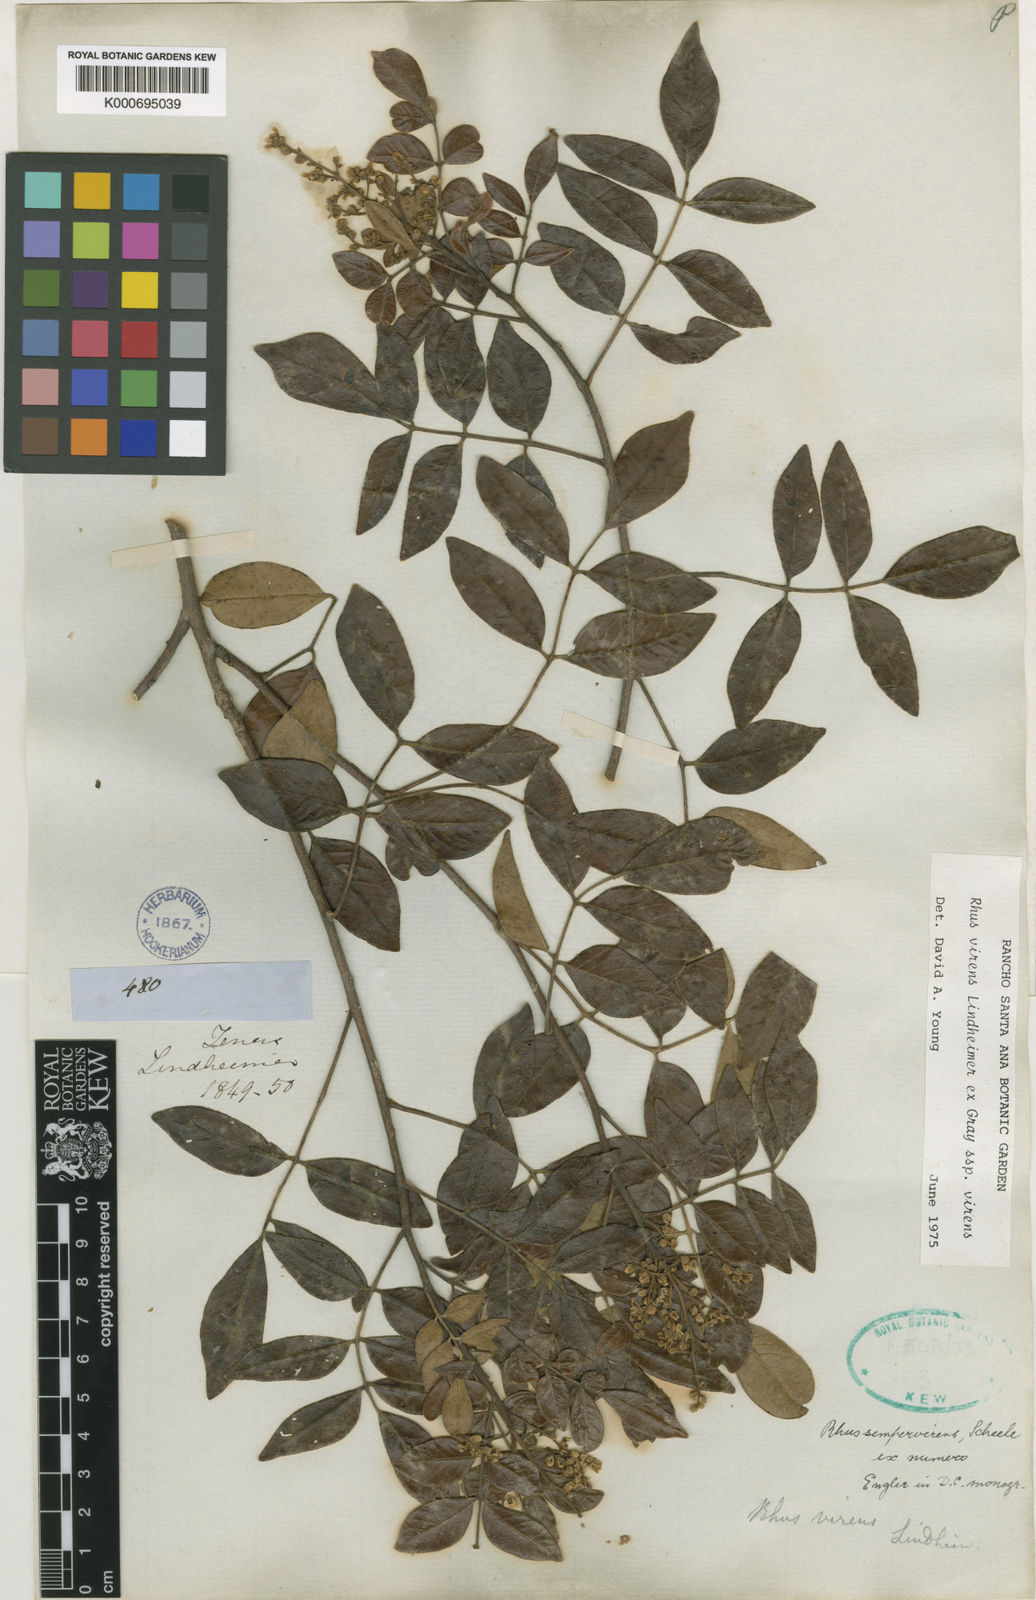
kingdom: Plantae
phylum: Tracheophyta
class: Magnoliopsida
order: Sapindales
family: Anacardiaceae
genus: Rhus
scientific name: Rhus
